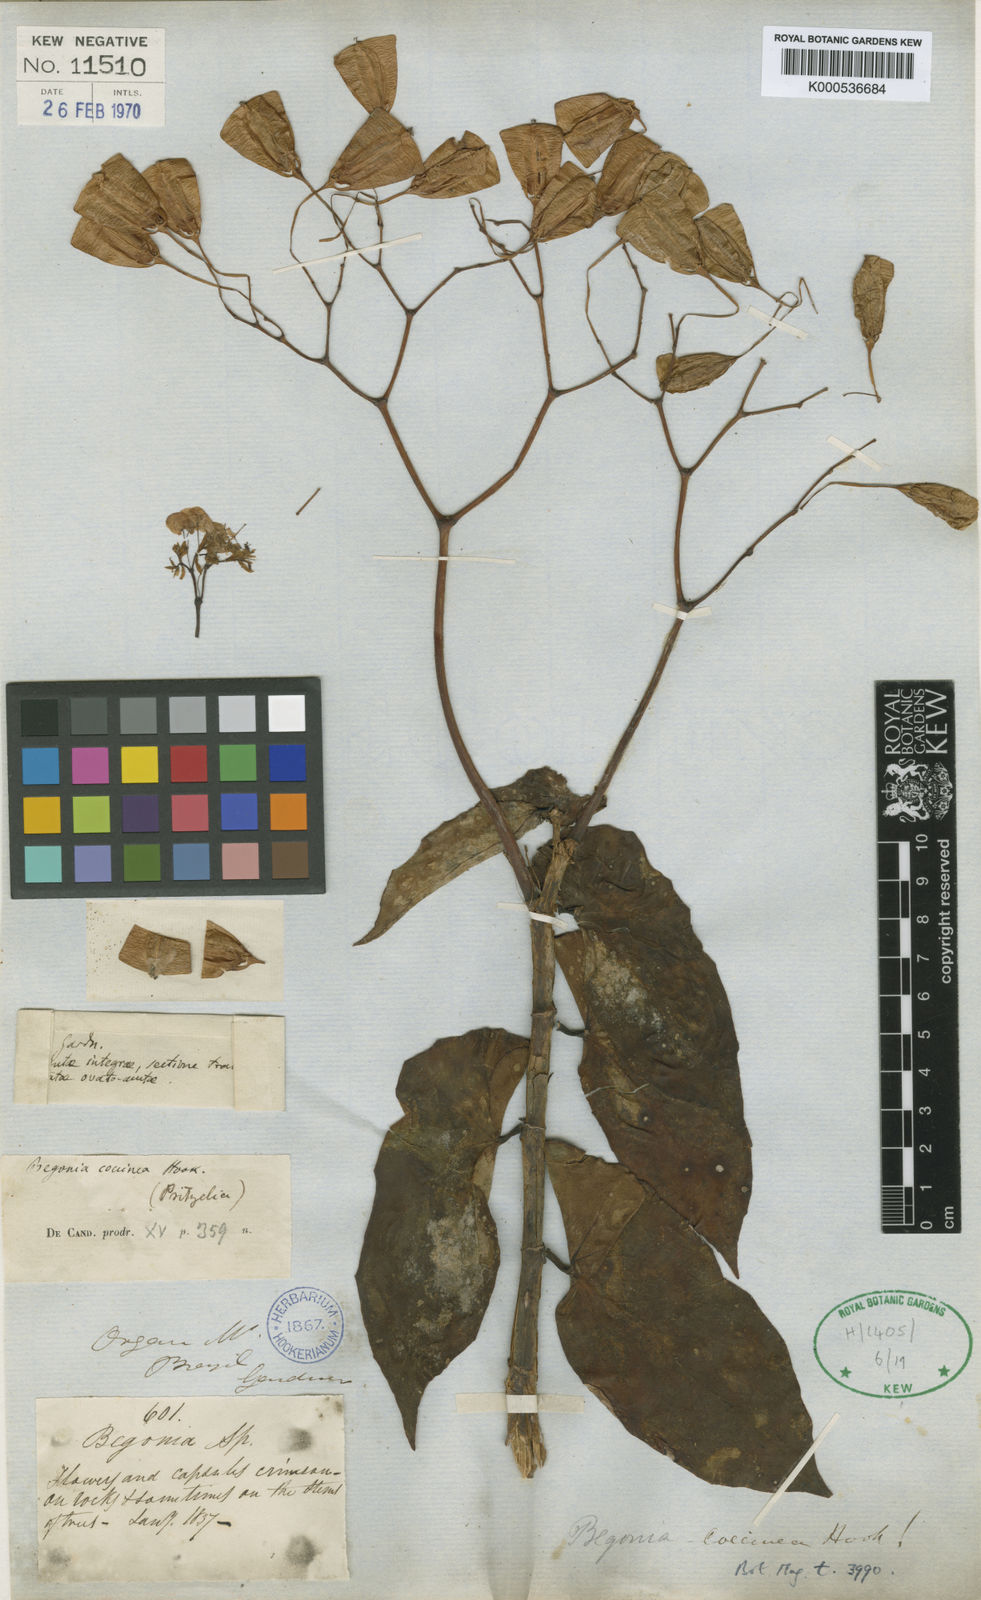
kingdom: Plantae
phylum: Tracheophyta
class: Magnoliopsida
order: Cucurbitales
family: Begoniaceae
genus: Begonia
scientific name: Begonia coccinea
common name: Angel-wing begonia
